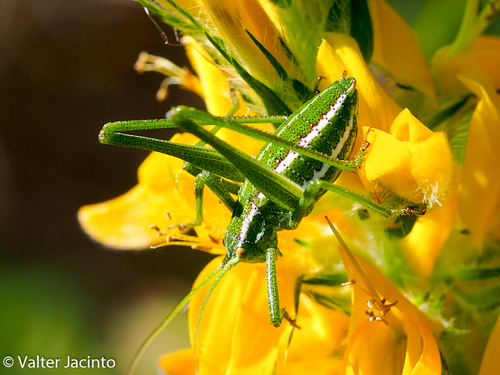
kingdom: Animalia
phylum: Arthropoda
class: Insecta
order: Orthoptera
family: Tettigoniidae
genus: Odontura
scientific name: Odontura glabricauda
